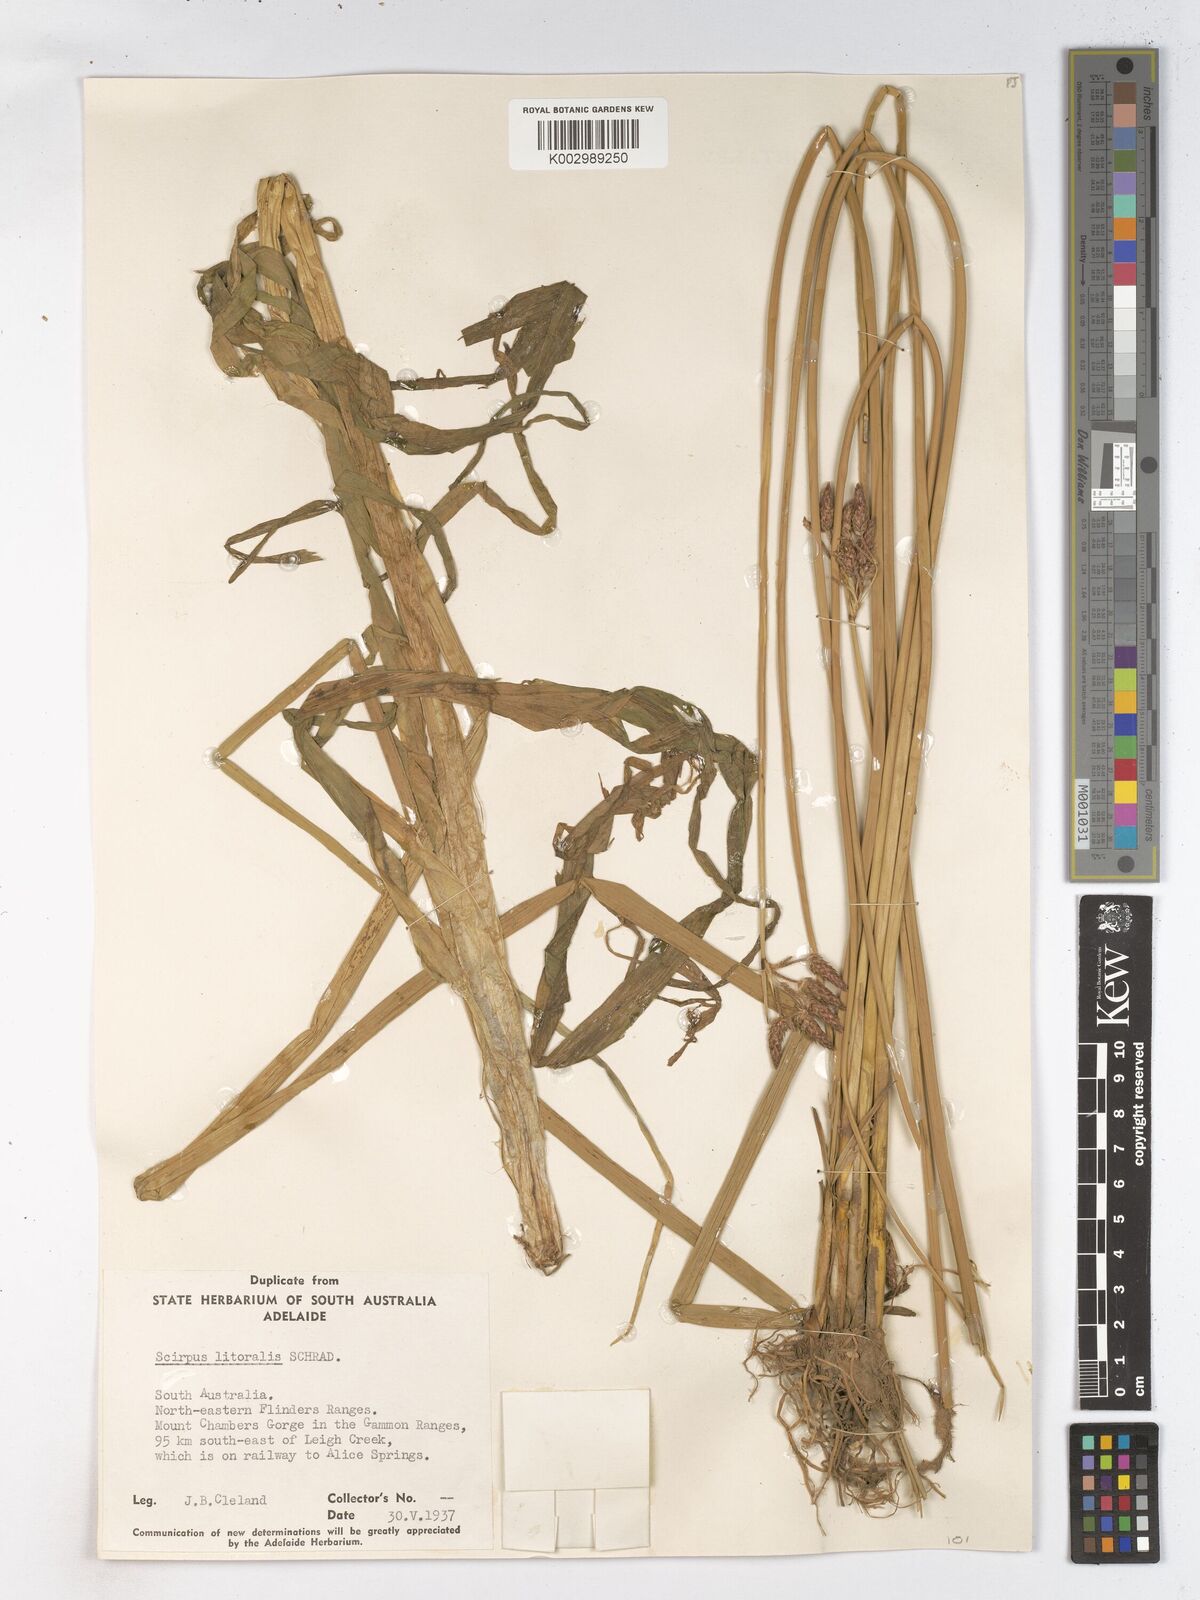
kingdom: Plantae
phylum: Tracheophyta
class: Liliopsida
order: Poales
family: Cyperaceae
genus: Schoenoplectus
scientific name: Schoenoplectus litoralis
